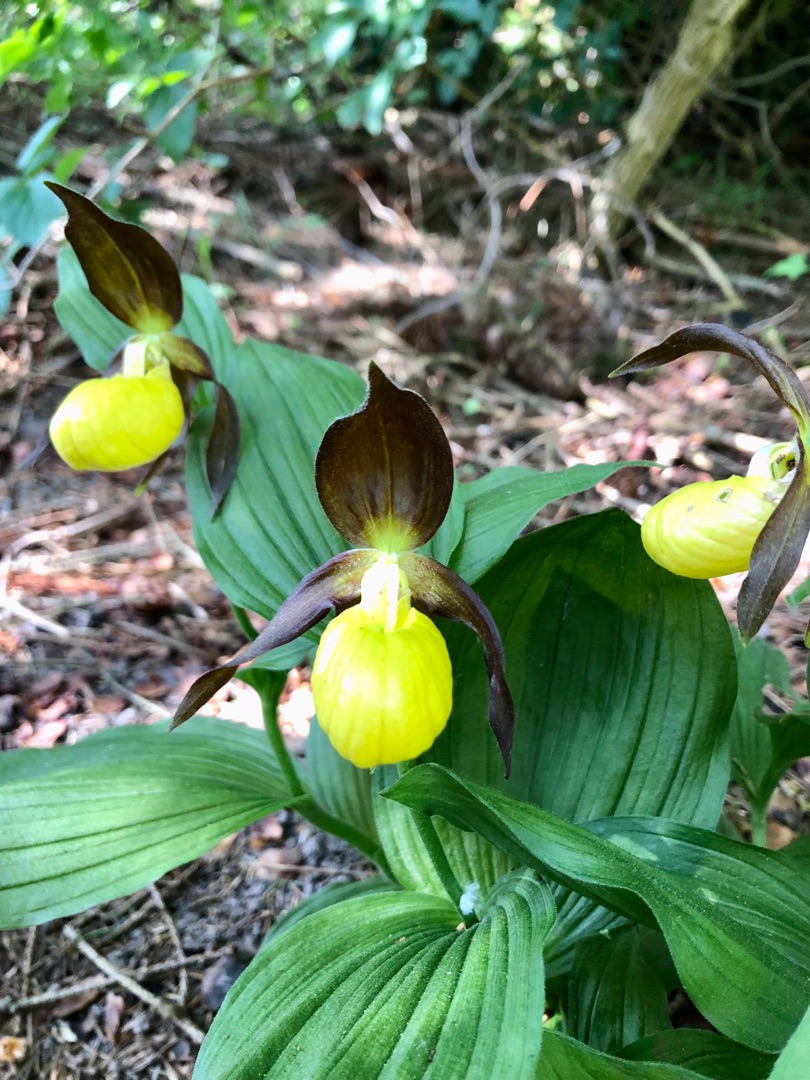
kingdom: Plantae
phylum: Tracheophyta
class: Liliopsida
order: Asparagales
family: Orchidaceae
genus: Cypripedium
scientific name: Cypripedium calceolus
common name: Fruesko
